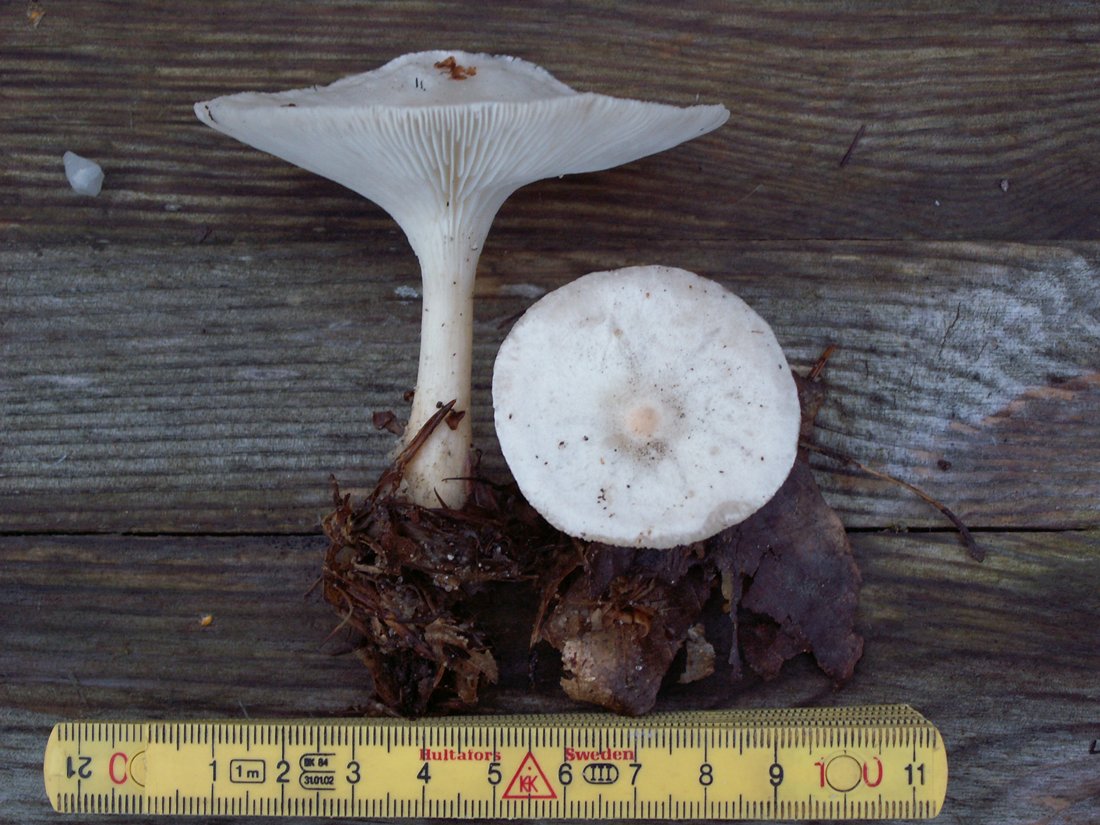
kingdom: Fungi
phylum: Basidiomycota
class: Agaricomycetes
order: Agaricales
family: Tricholomataceae
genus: Infundibulicybe
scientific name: Infundibulicybe gibba
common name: almindelig tragthat
